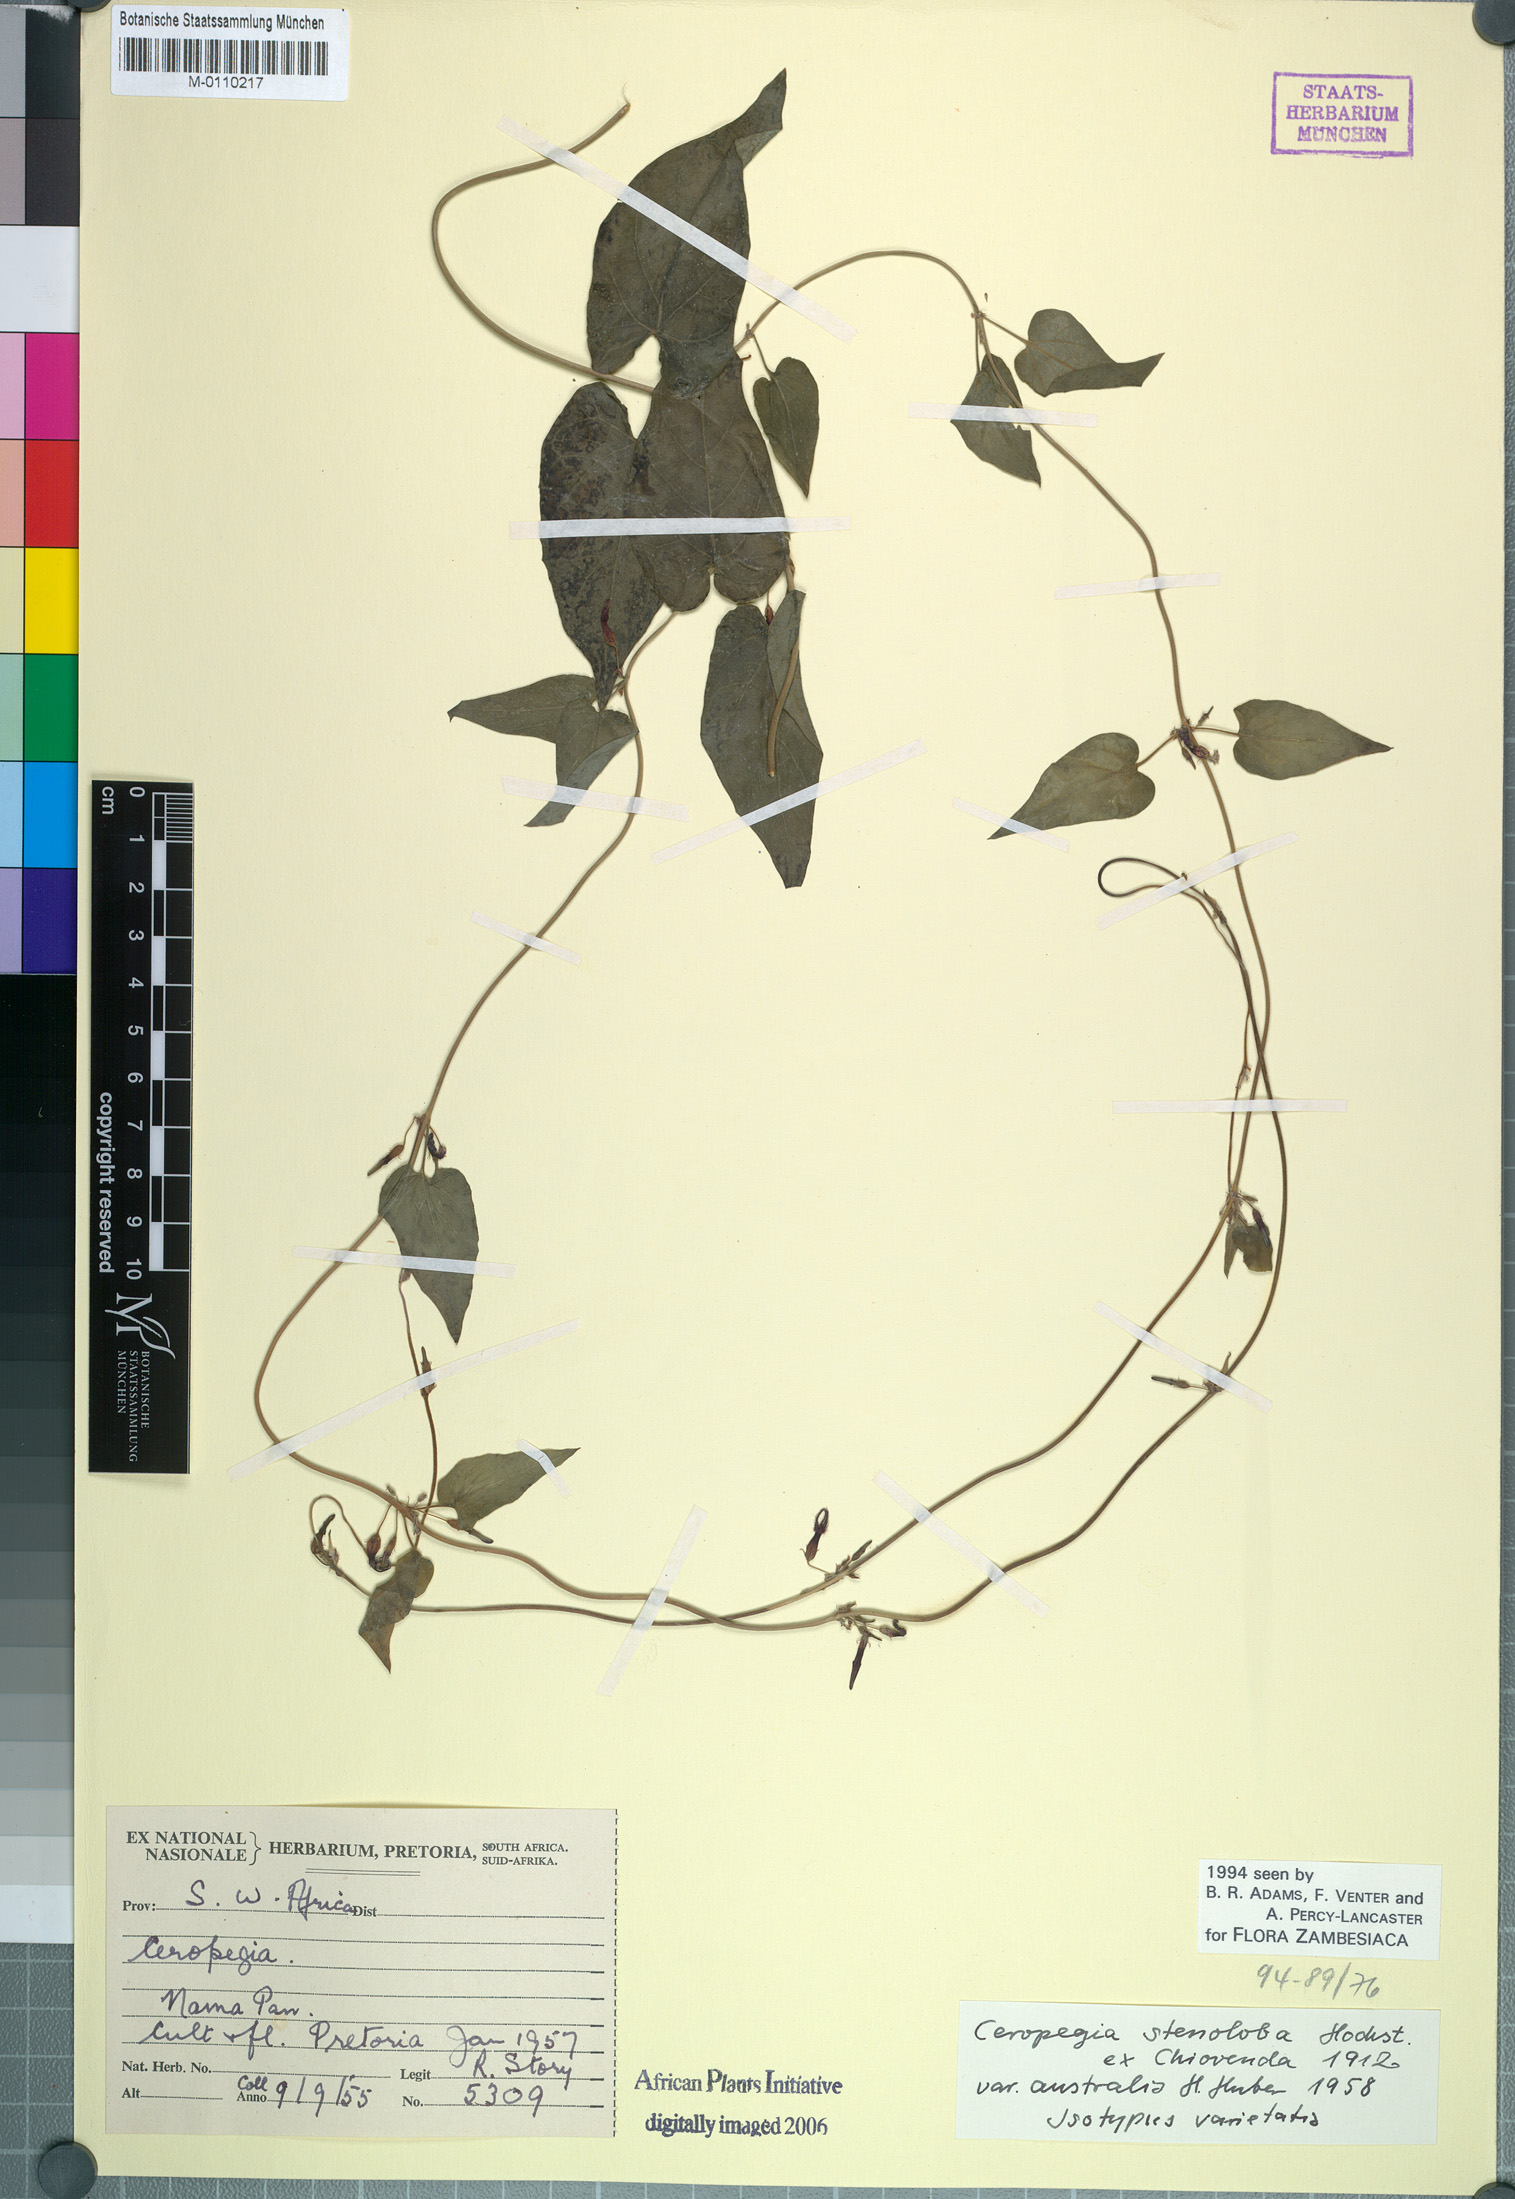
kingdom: Plantae
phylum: Tracheophyta
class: Magnoliopsida
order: Gentianales
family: Apocynaceae
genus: Ceropegia
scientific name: Ceropegia stenoloba
